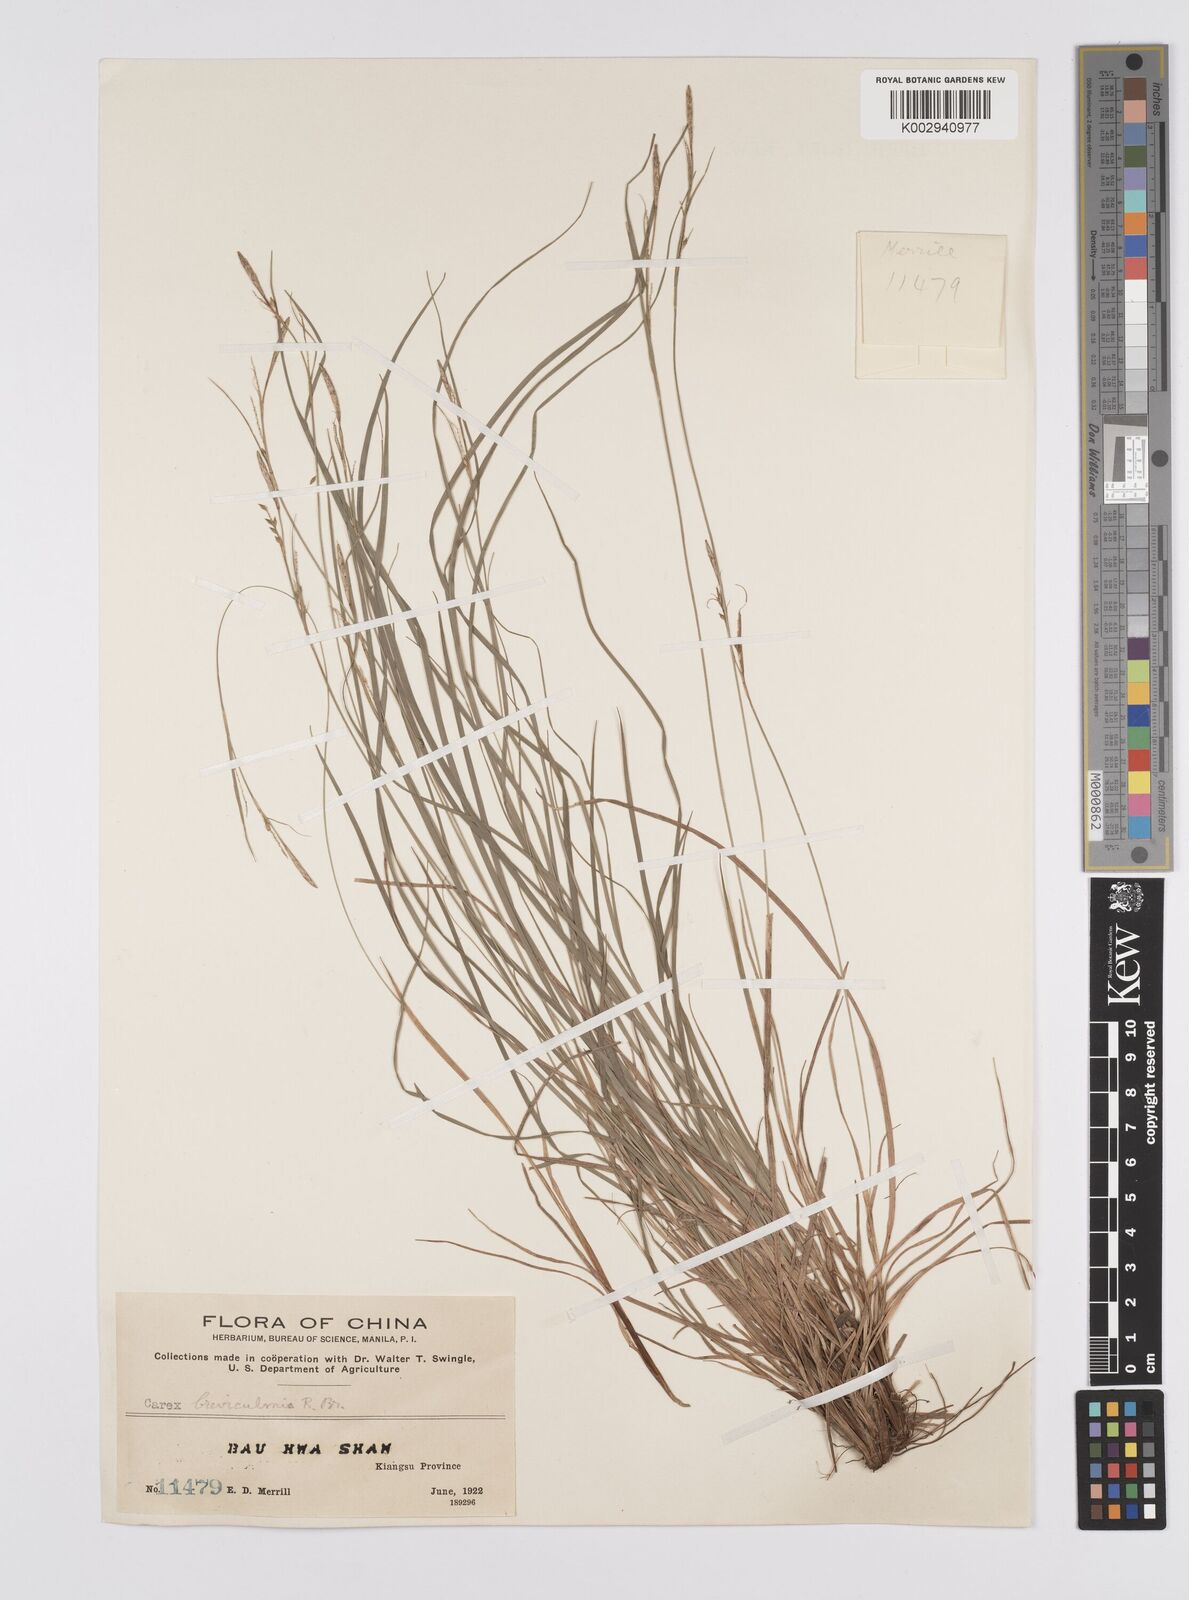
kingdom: Plantae
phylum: Tracheophyta
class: Liliopsida
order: Poales
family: Cyperaceae
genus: Carex
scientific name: Carex breviculmis
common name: Asian shortstem sedge
